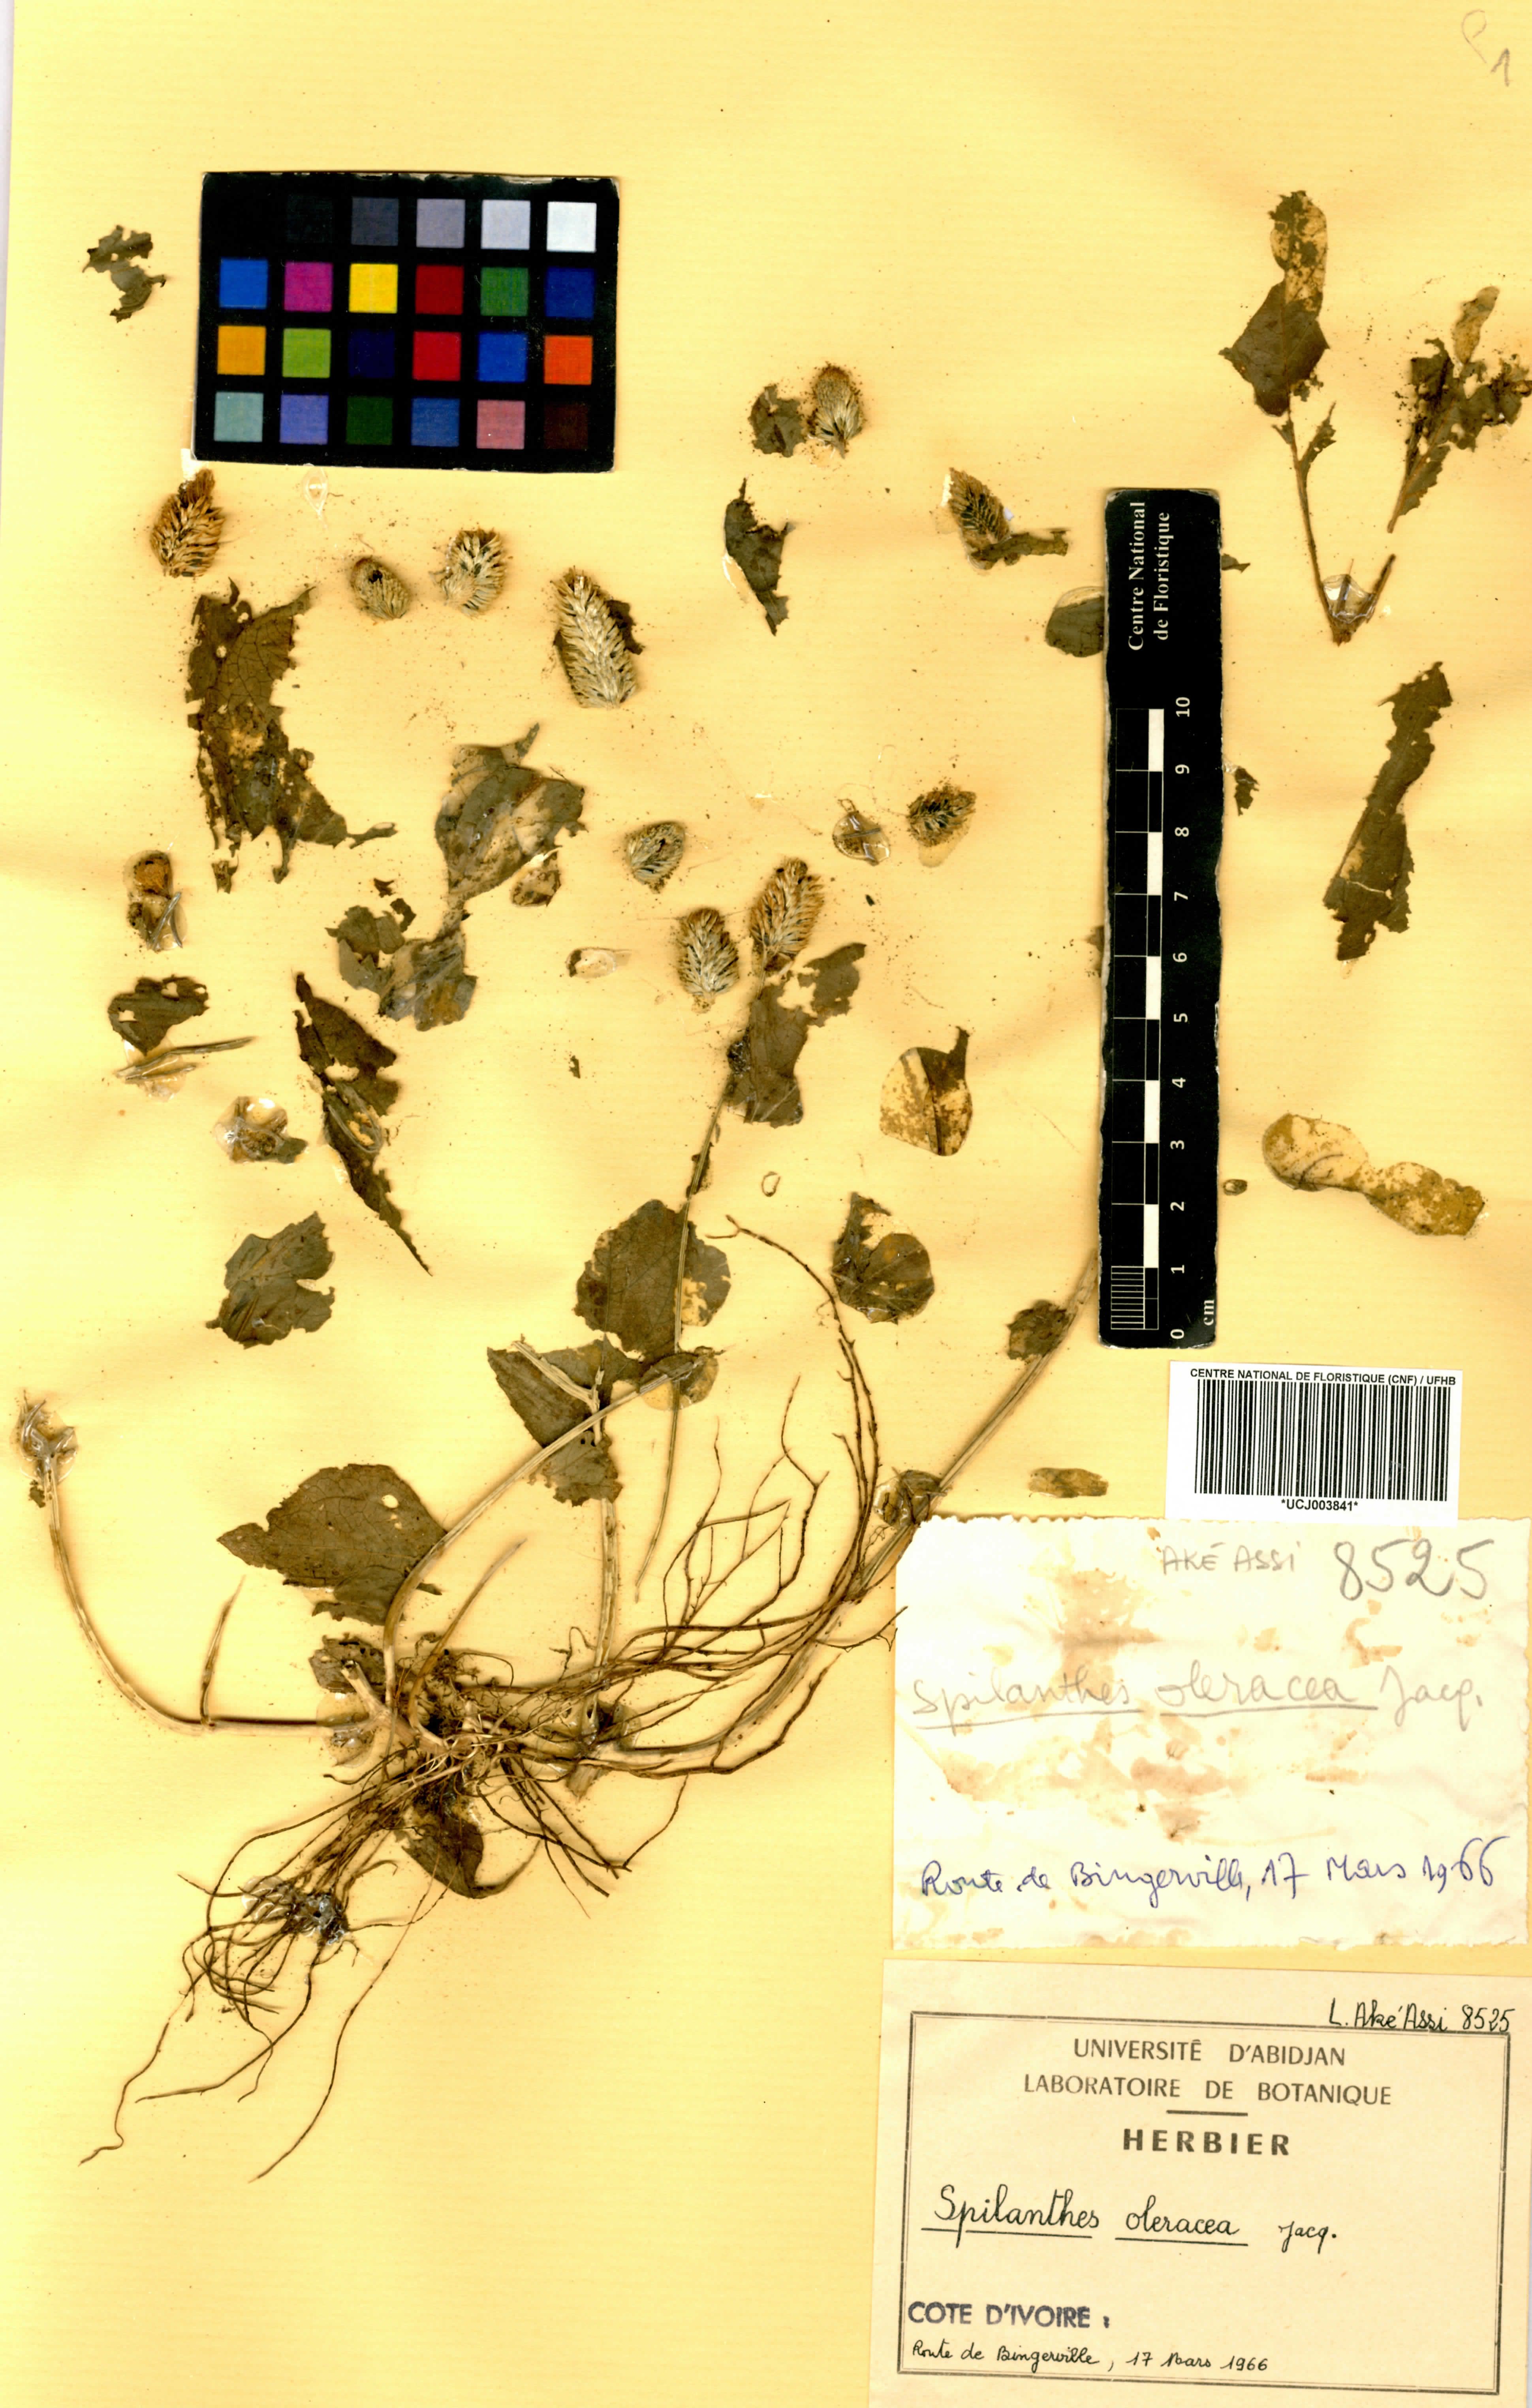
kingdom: Plantae
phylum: Tracheophyta
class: Magnoliopsida
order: Asterales
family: Asteraceae
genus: Acmella
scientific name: Acmella oleracea
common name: Brazilian cress
